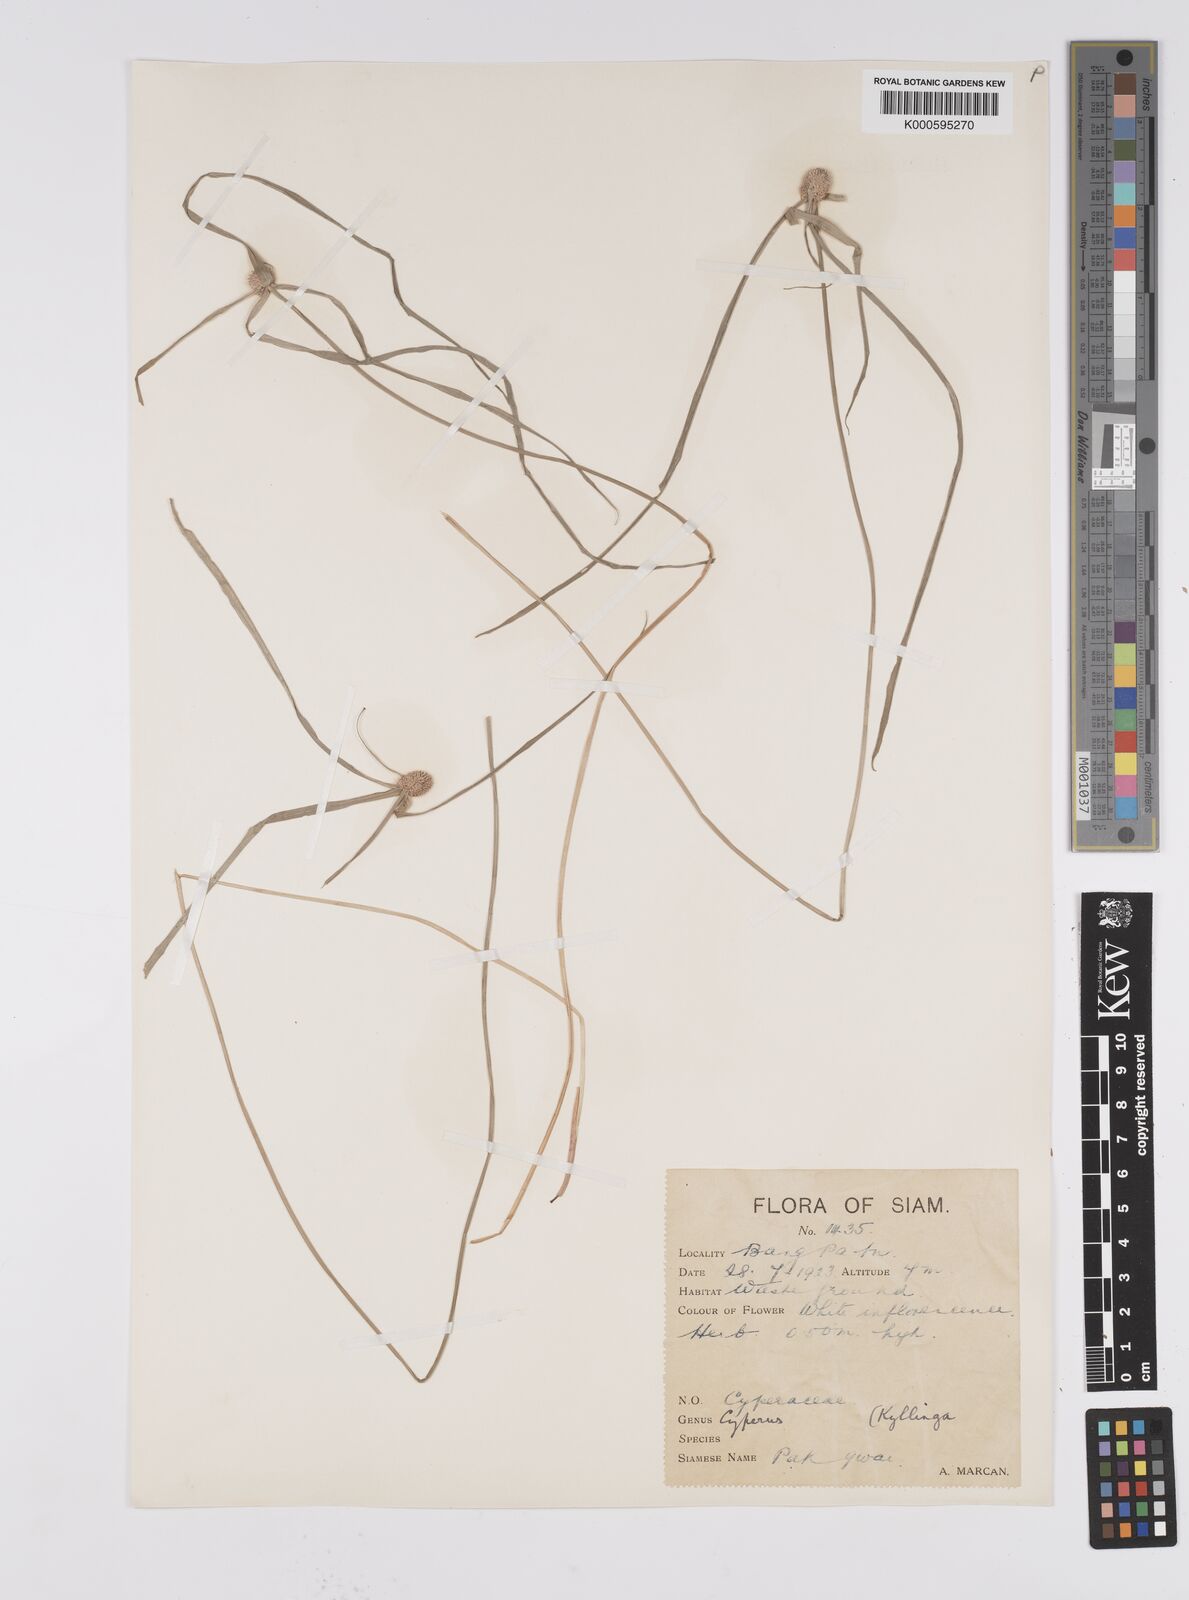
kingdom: Plantae
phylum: Tracheophyta
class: Liliopsida
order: Poales
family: Cyperaceae
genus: Cyperus
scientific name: Cyperus mindorensis
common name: Flatsedge
